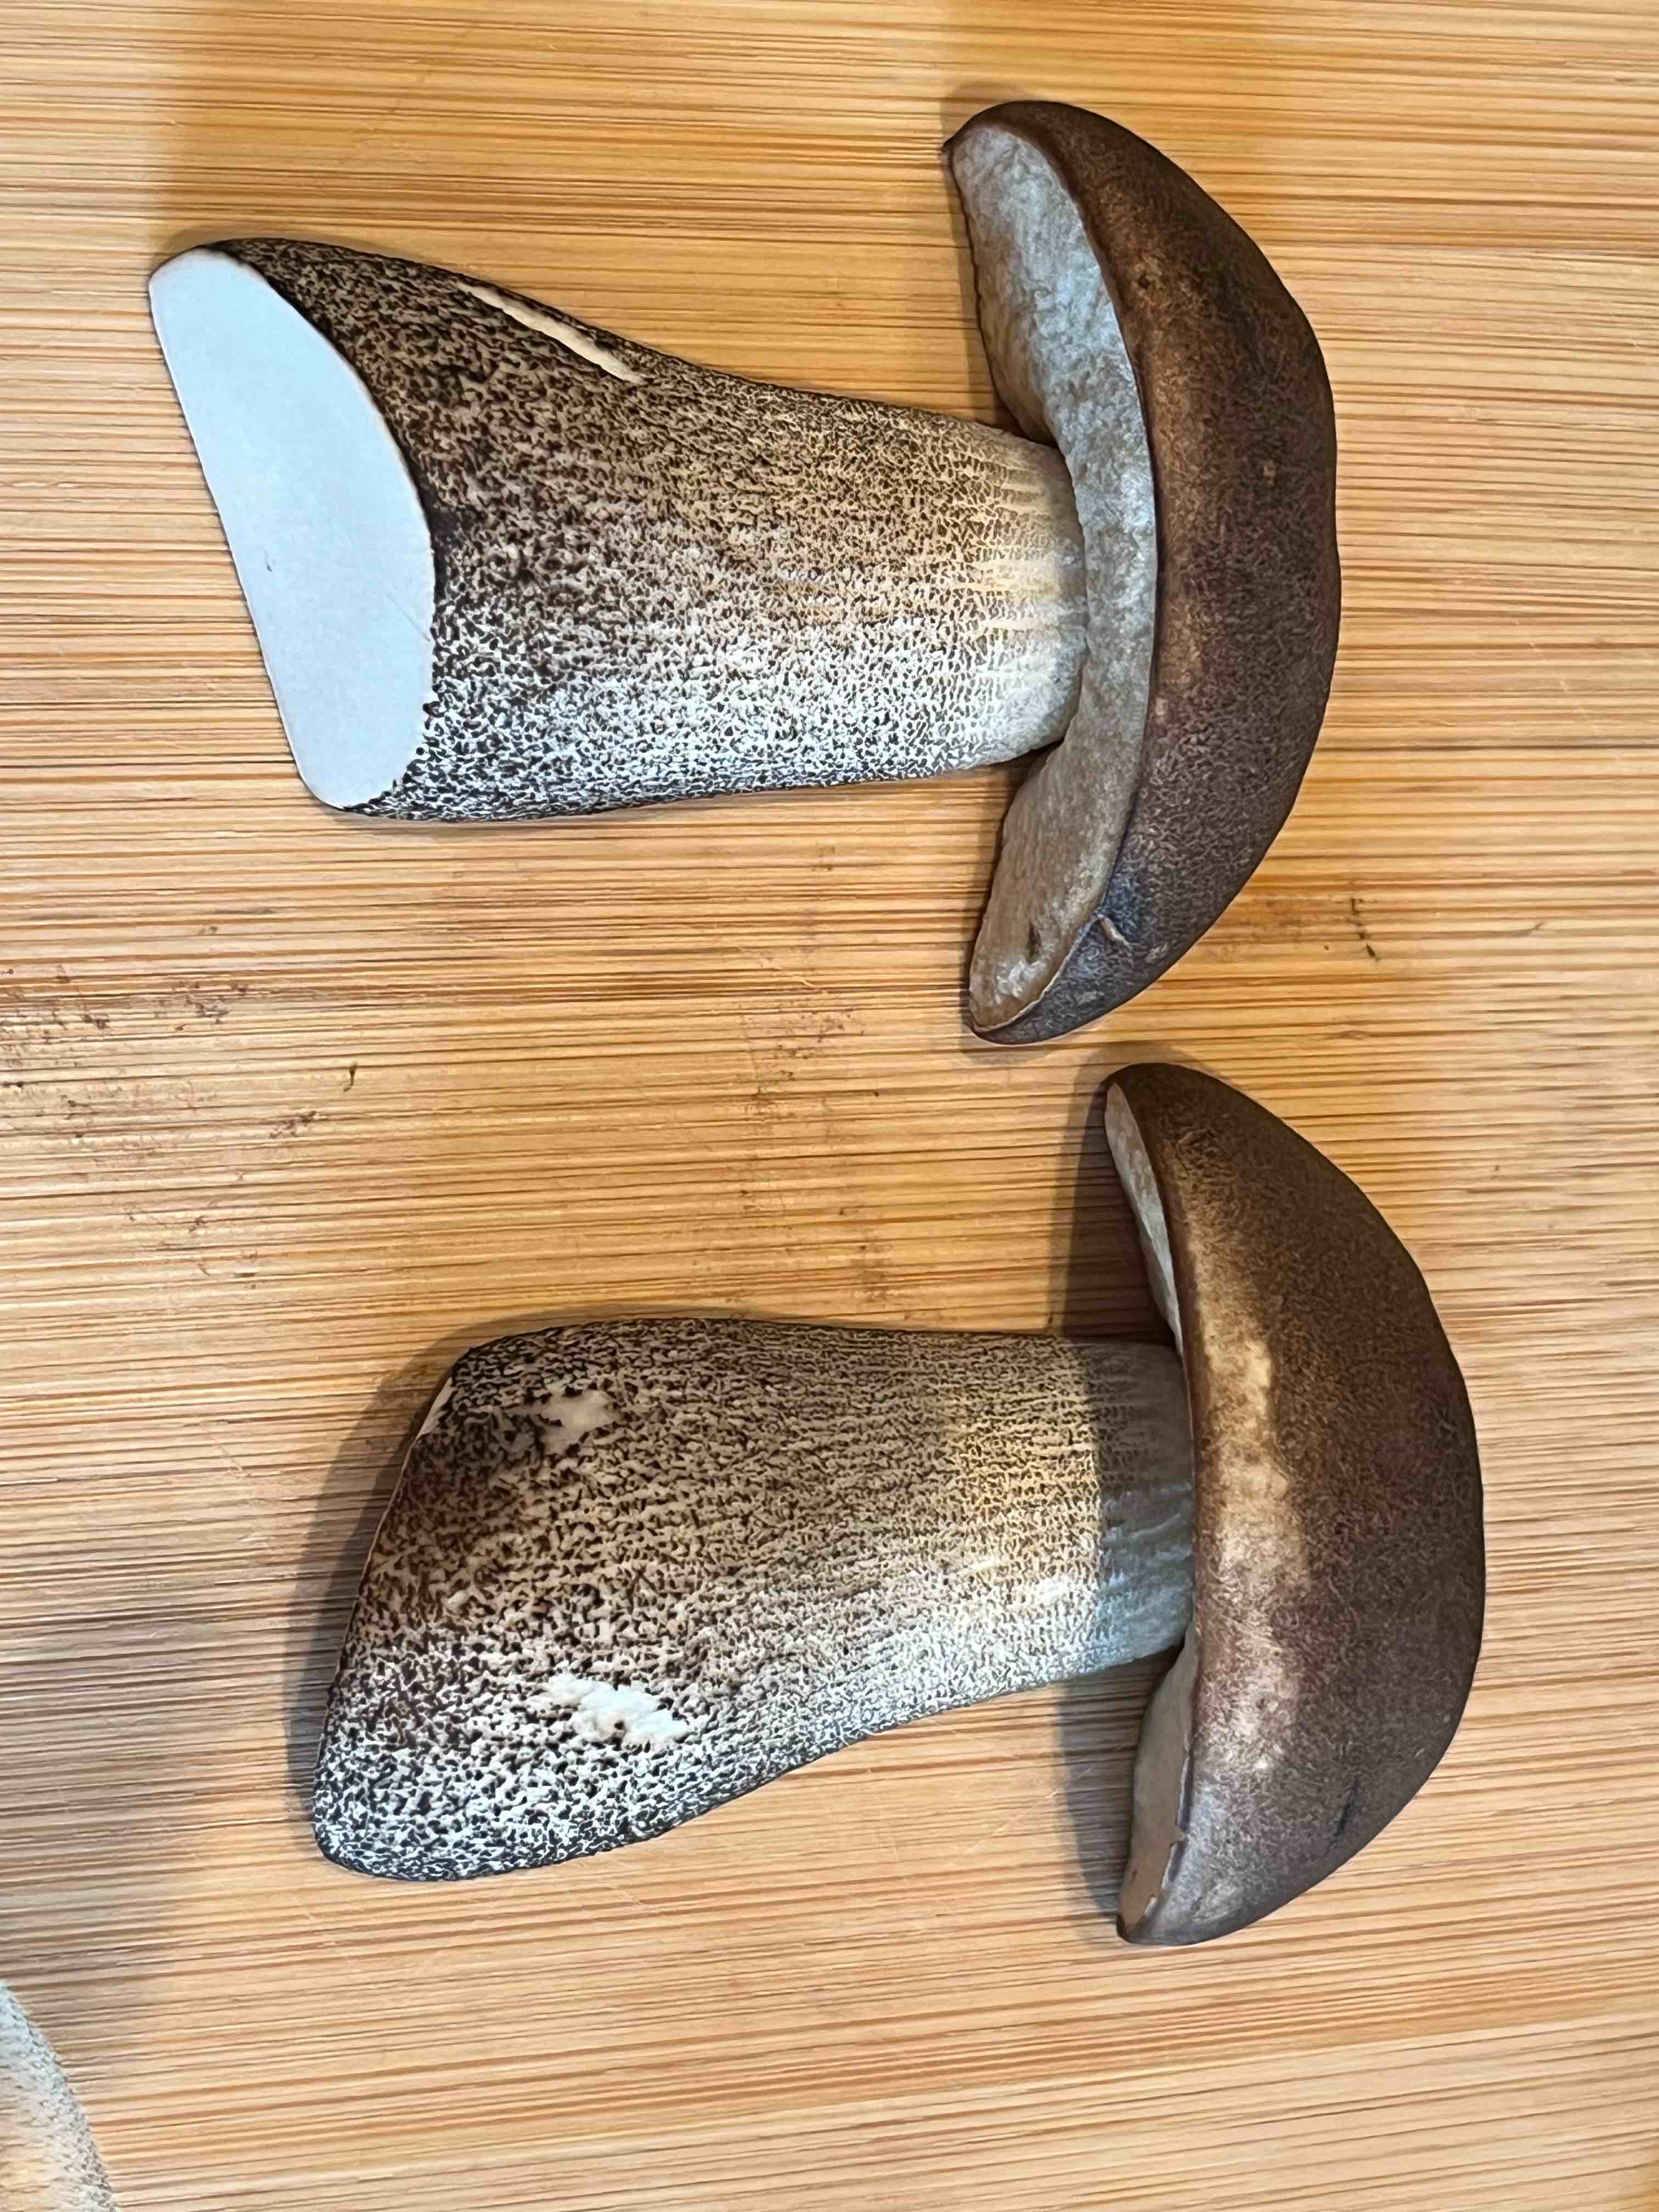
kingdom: Fungi
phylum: Basidiomycota
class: Agaricomycetes
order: Boletales
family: Boletaceae
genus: Leccinum
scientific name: Leccinum duriusculum
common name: poppel-skælrørhat
